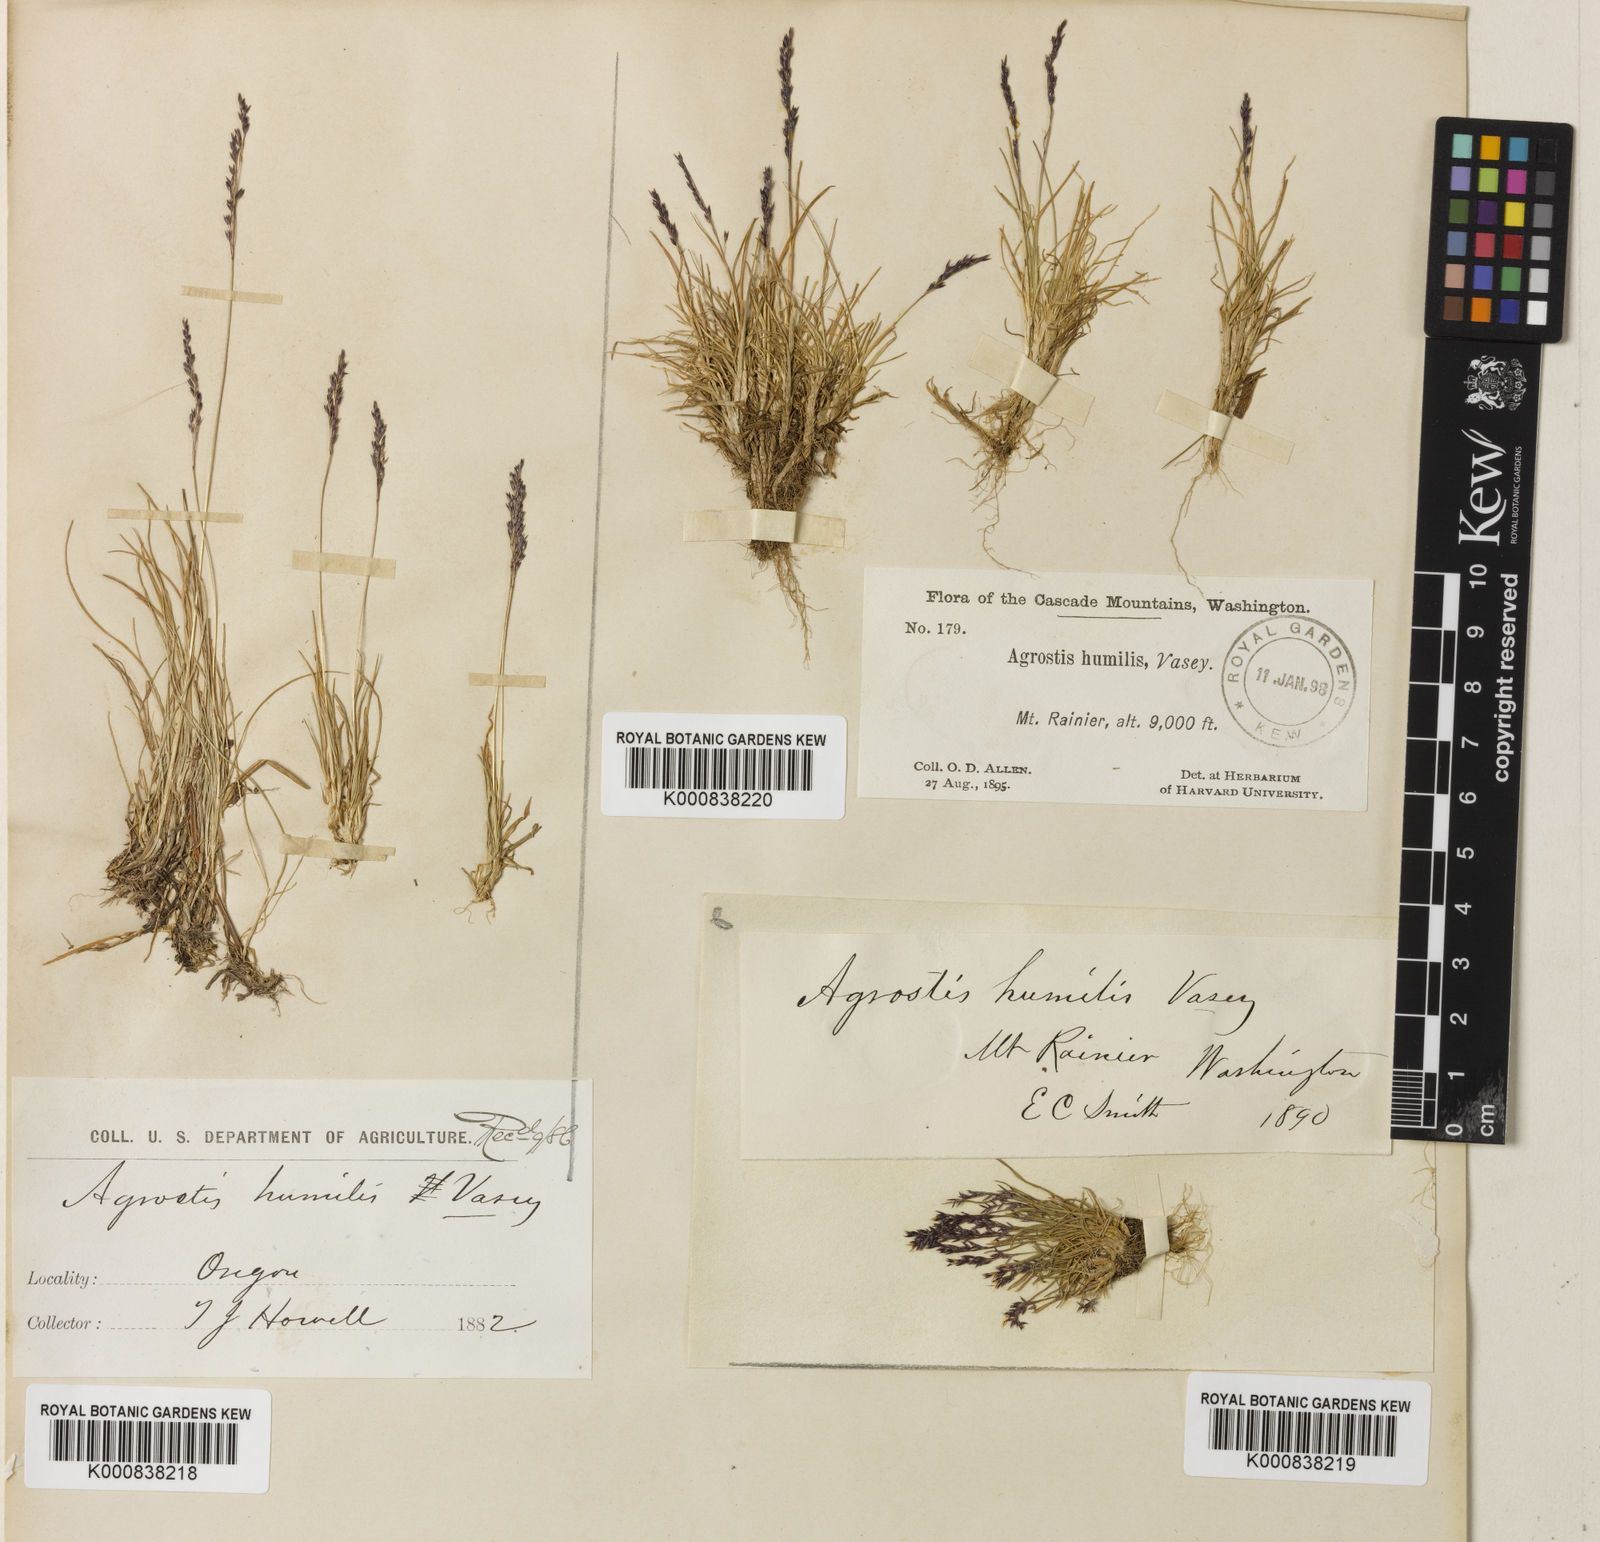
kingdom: Plantae
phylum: Tracheophyta
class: Liliopsida
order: Poales
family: Poaceae
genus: Podagrostis
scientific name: Podagrostis humilis
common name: Thurber's bentgrass
